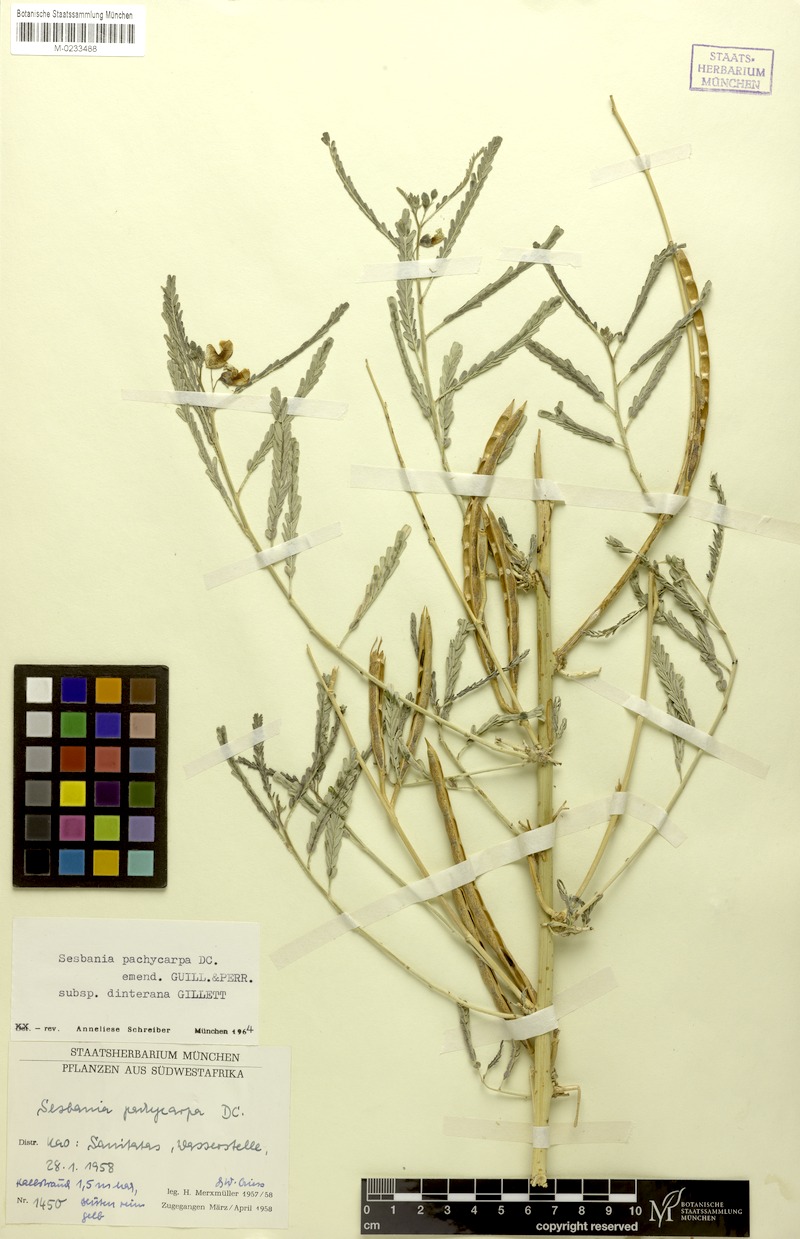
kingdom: Plantae
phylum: Tracheophyta
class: Magnoliopsida
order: Fabales
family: Fabaceae
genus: Sesbania
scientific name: Sesbania pachycarpa
